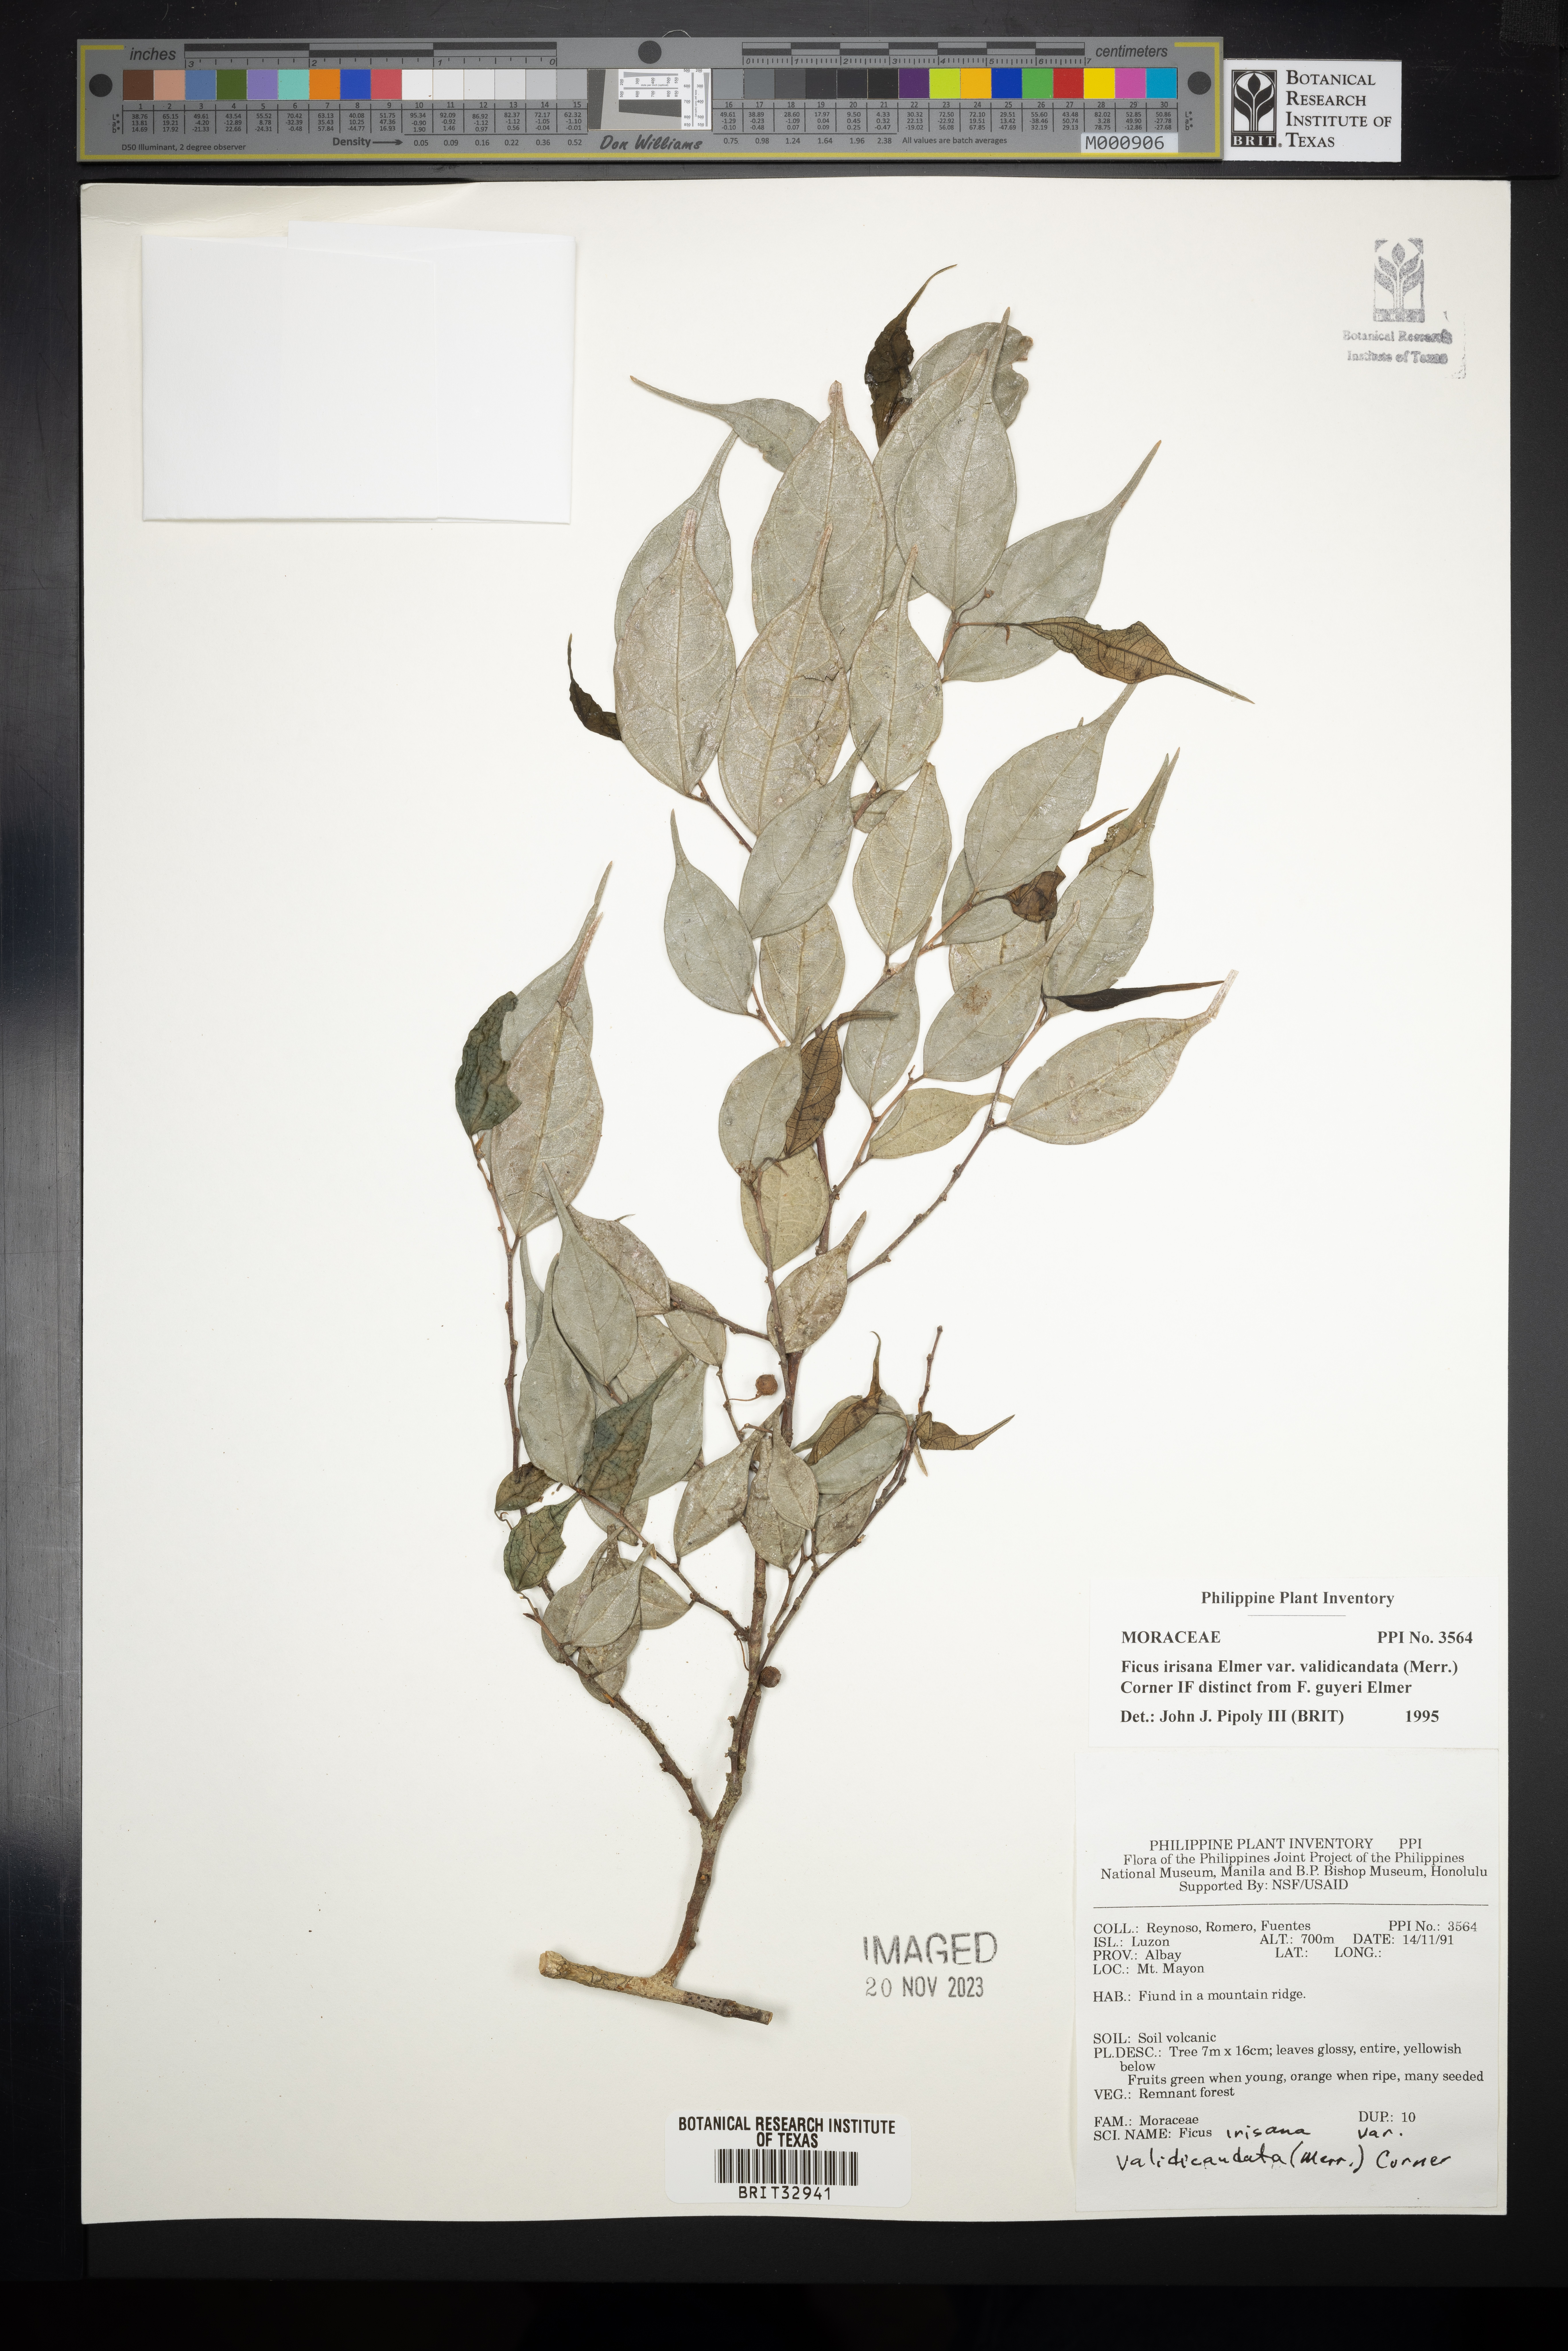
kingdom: Plantae
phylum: Tracheophyta
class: Magnoliopsida
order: Rosales
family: Moraceae
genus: Ficus
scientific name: Ficus ampelos
